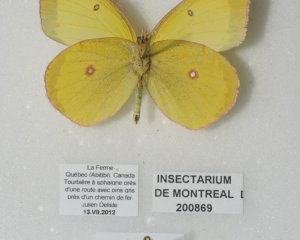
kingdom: Animalia
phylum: Arthropoda
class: Insecta
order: Lepidoptera
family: Pieridae
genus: Colias
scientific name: Colias interior
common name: Pink-edged Sulphur
